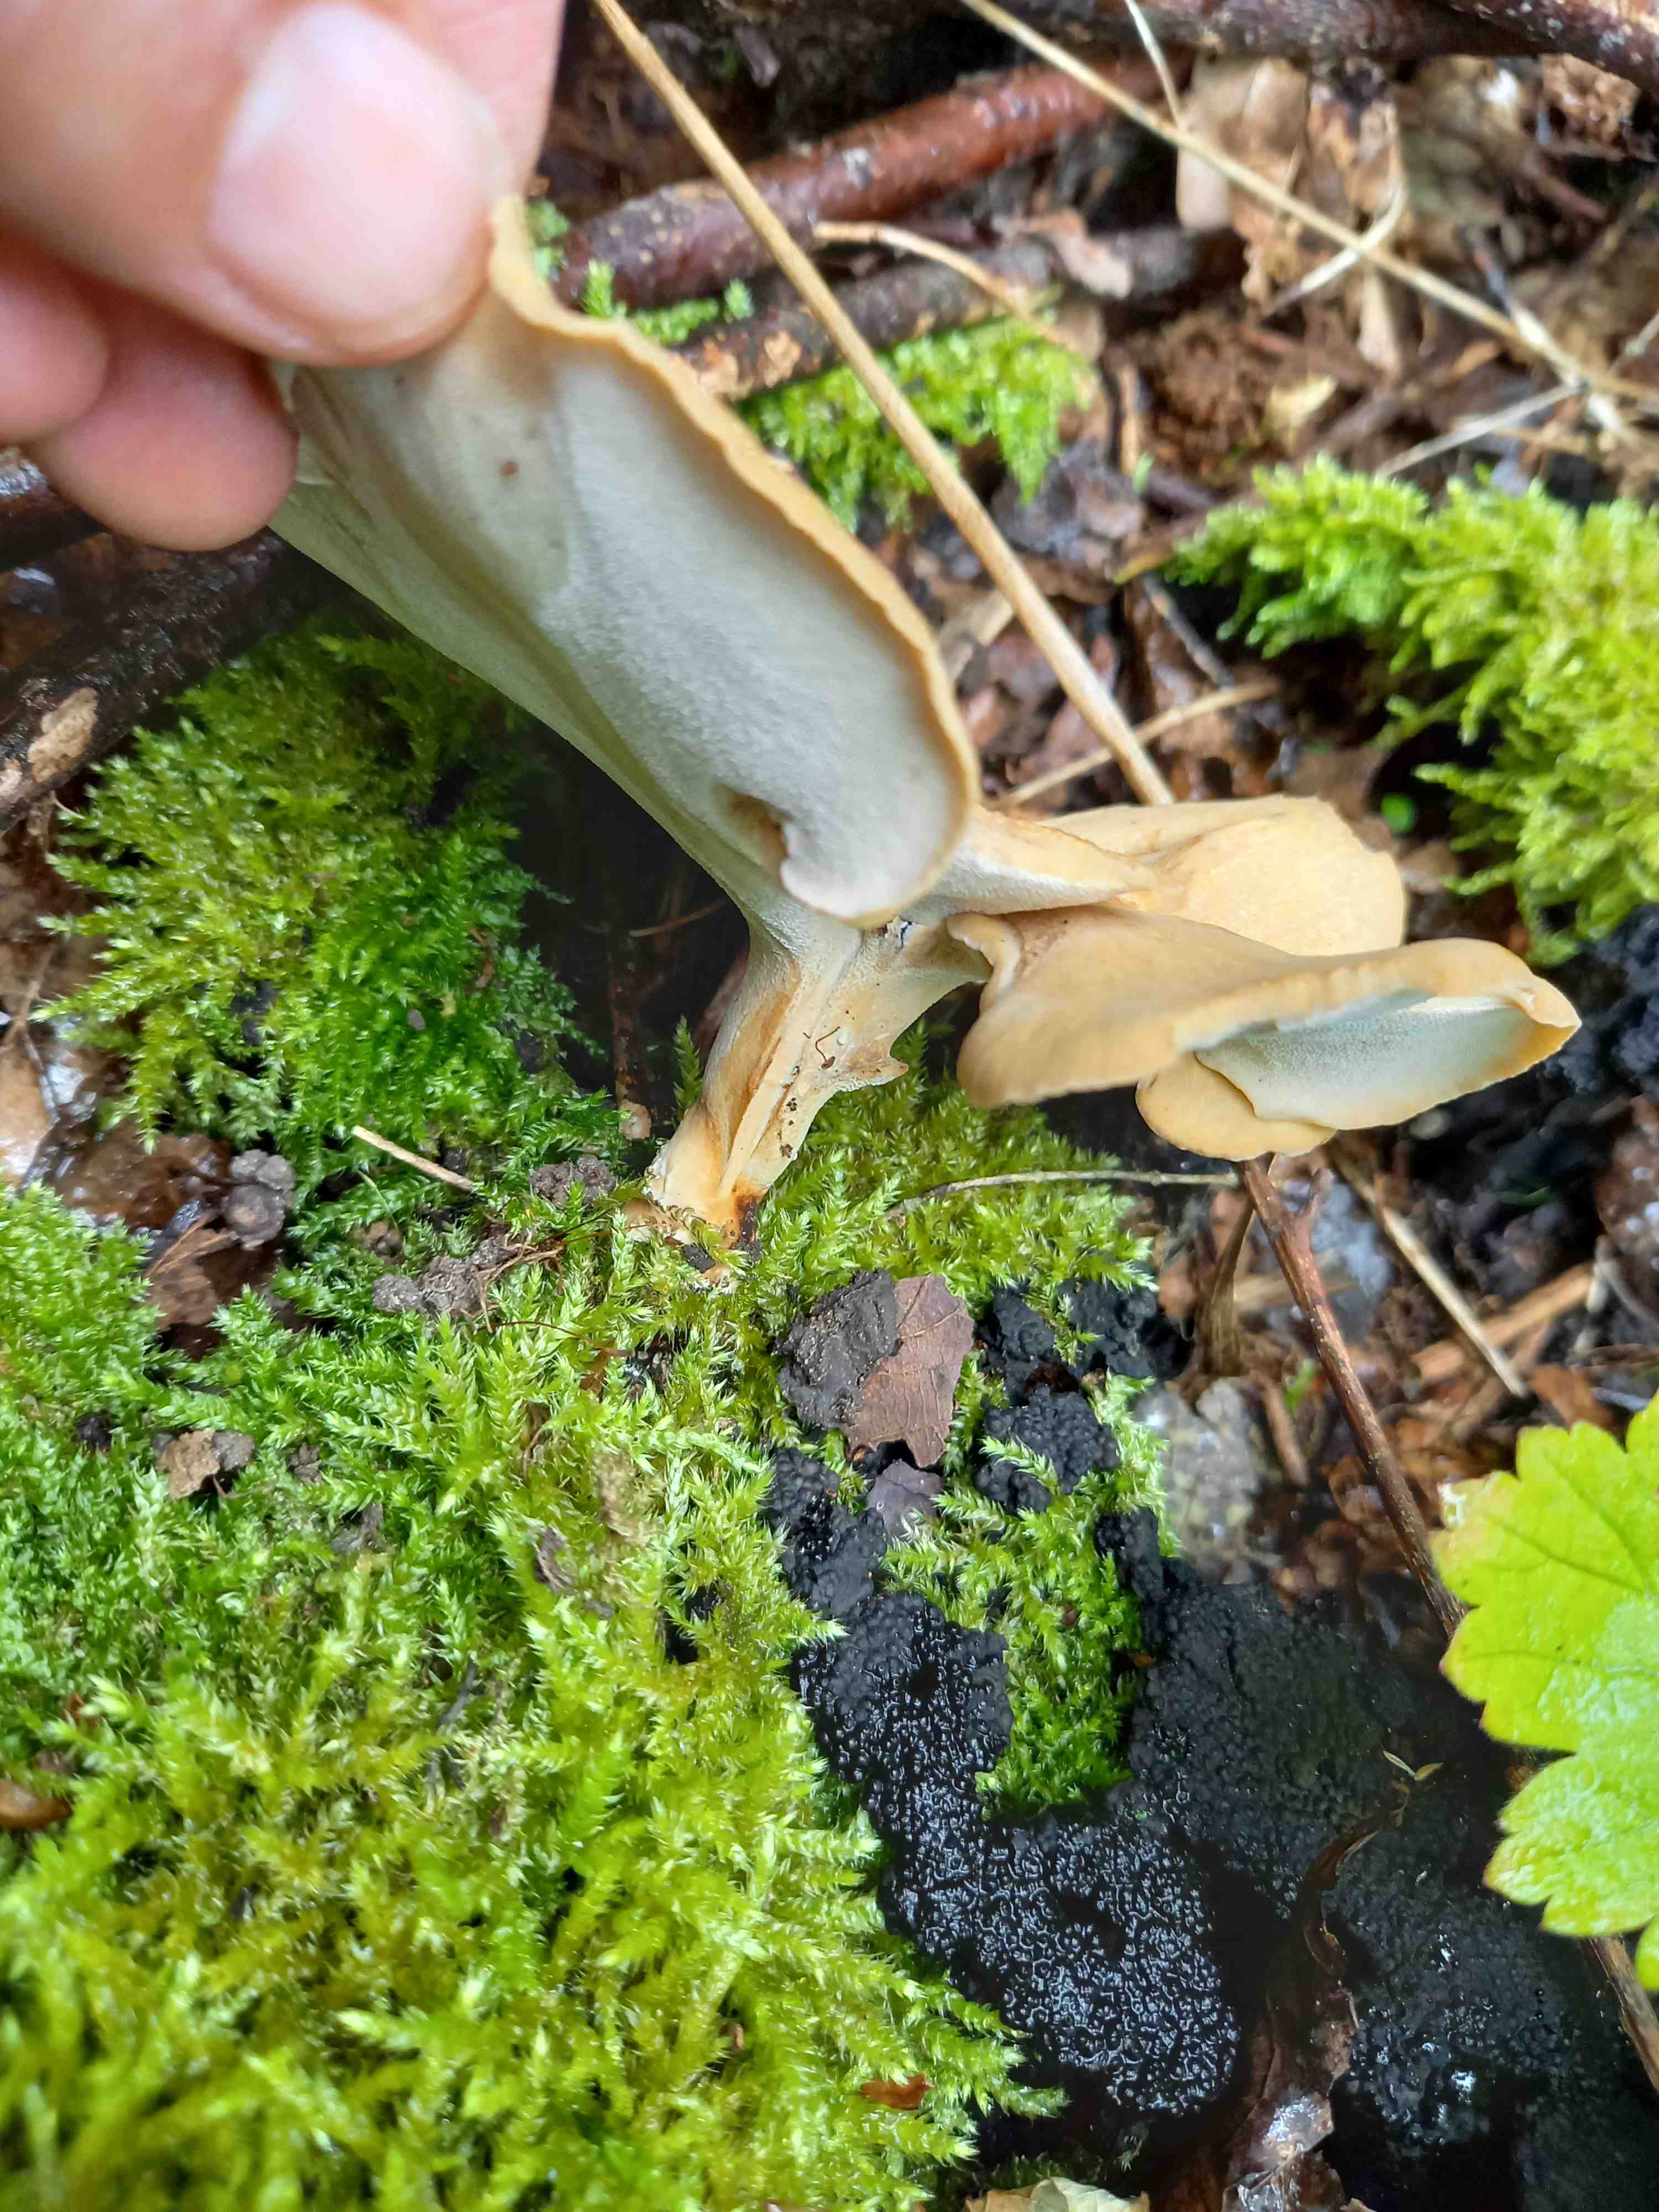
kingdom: Fungi
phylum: Basidiomycota
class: Agaricomycetes
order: Polyporales
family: Polyporaceae
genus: Cerioporus
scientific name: Cerioporus varius
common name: foranderlig stilkporesvamp
